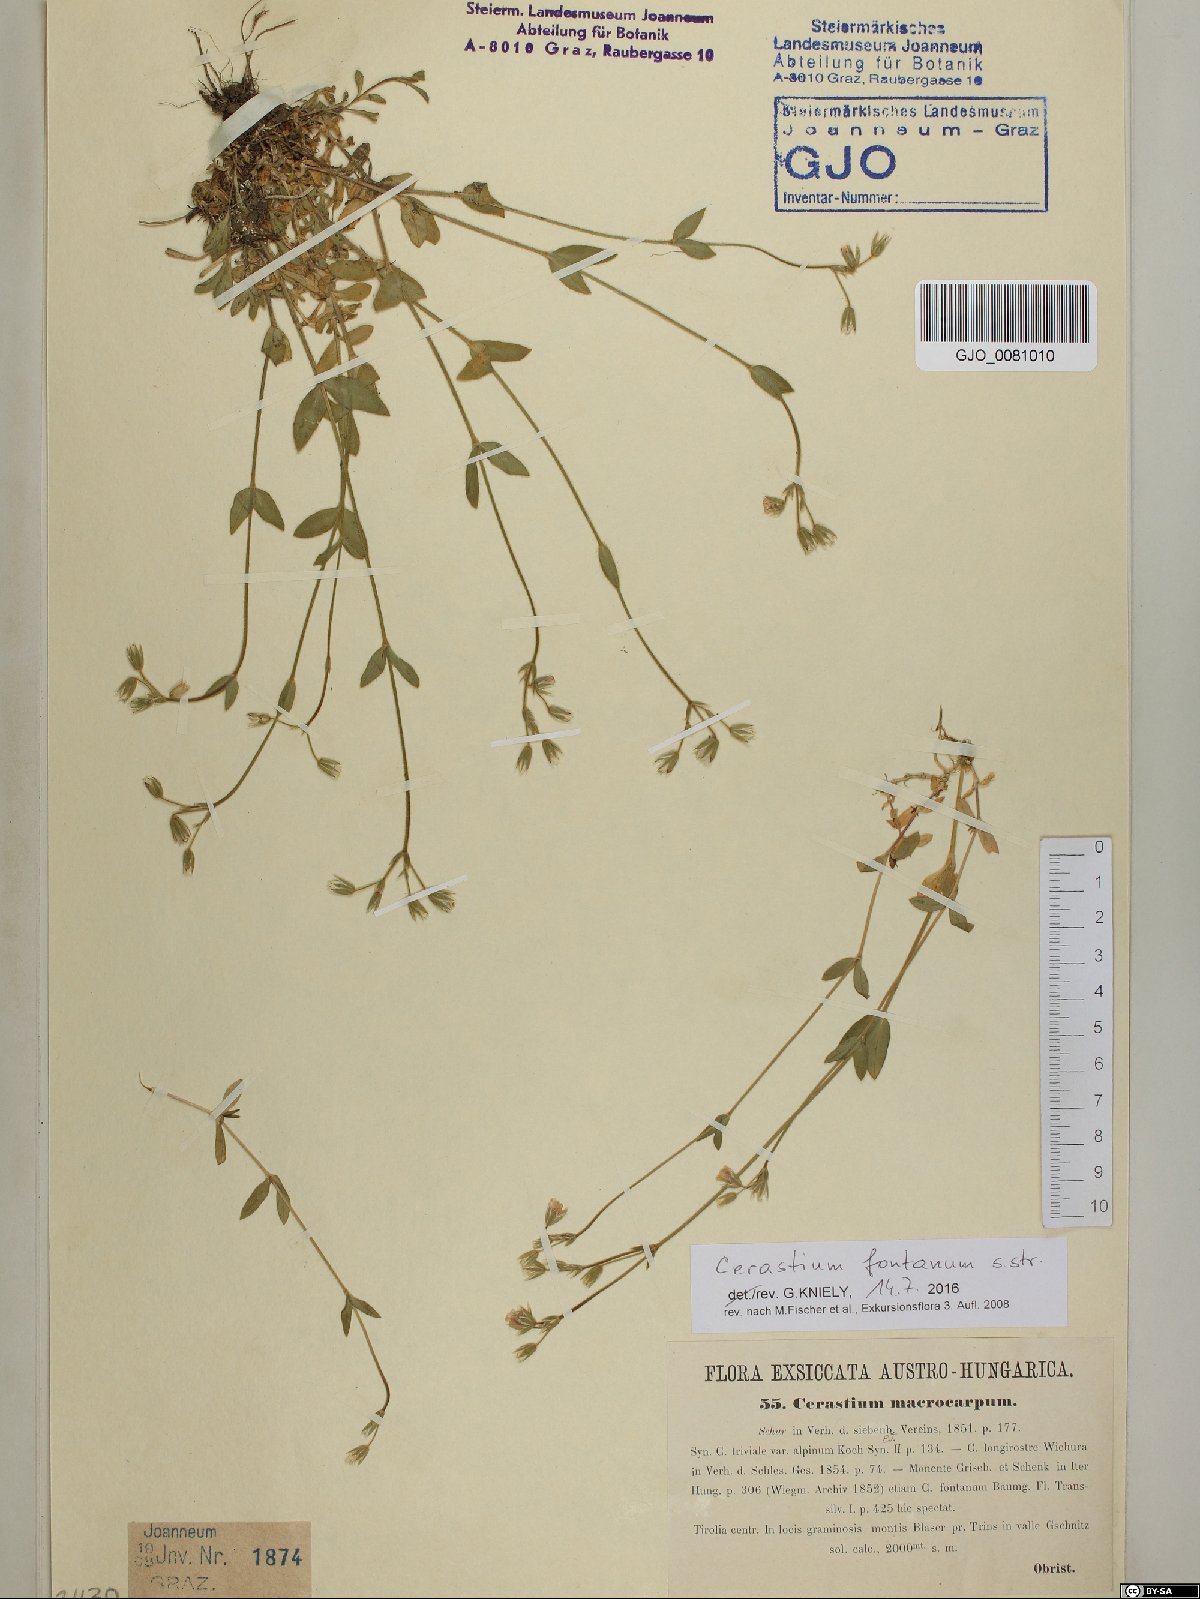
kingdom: Plantae
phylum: Tracheophyta
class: Magnoliopsida
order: Caryophyllales
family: Caryophyllaceae
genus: Cerastium
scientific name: Cerastium fontanum
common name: Common mouse-ear
